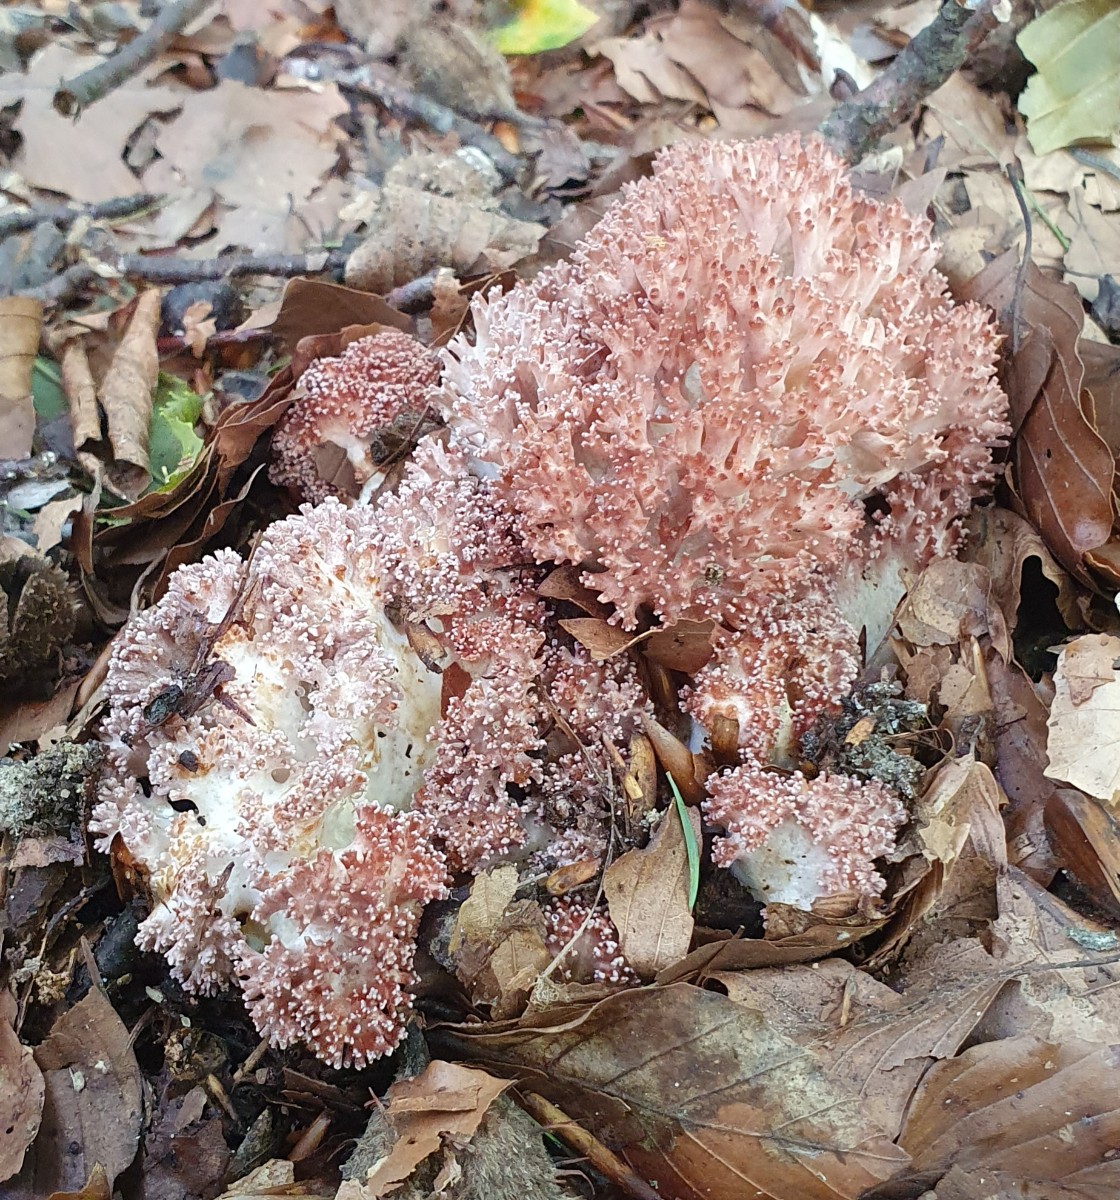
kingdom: Fungi
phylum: Basidiomycota
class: Agaricomycetes
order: Gomphales
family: Gomphaceae
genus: Ramaria
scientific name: Ramaria botrytis
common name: drue-koralsvamp
